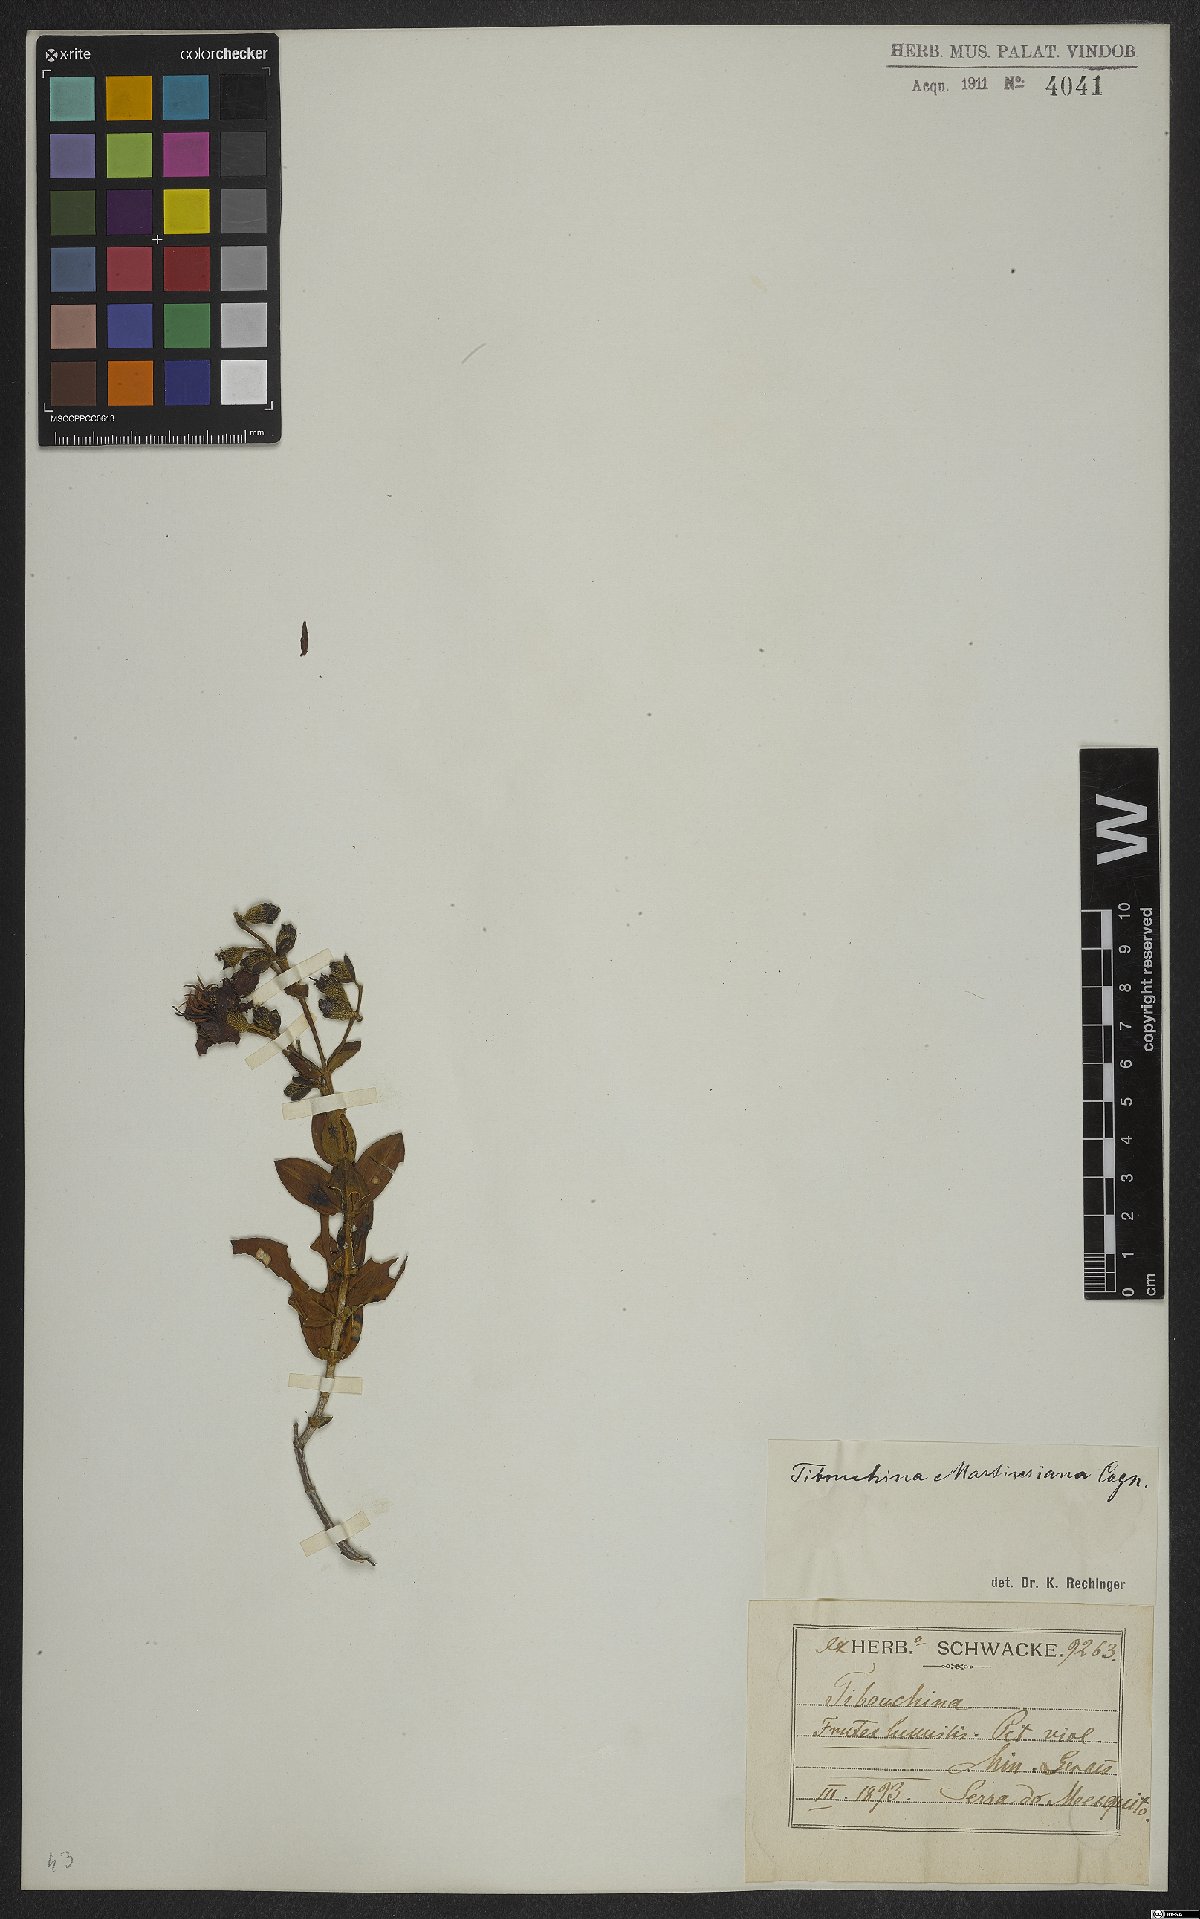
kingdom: Plantae
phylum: Tracheophyta
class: Magnoliopsida
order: Myrtales
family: Melastomataceae
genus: Pleroma
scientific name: Pleroma martiusianum
